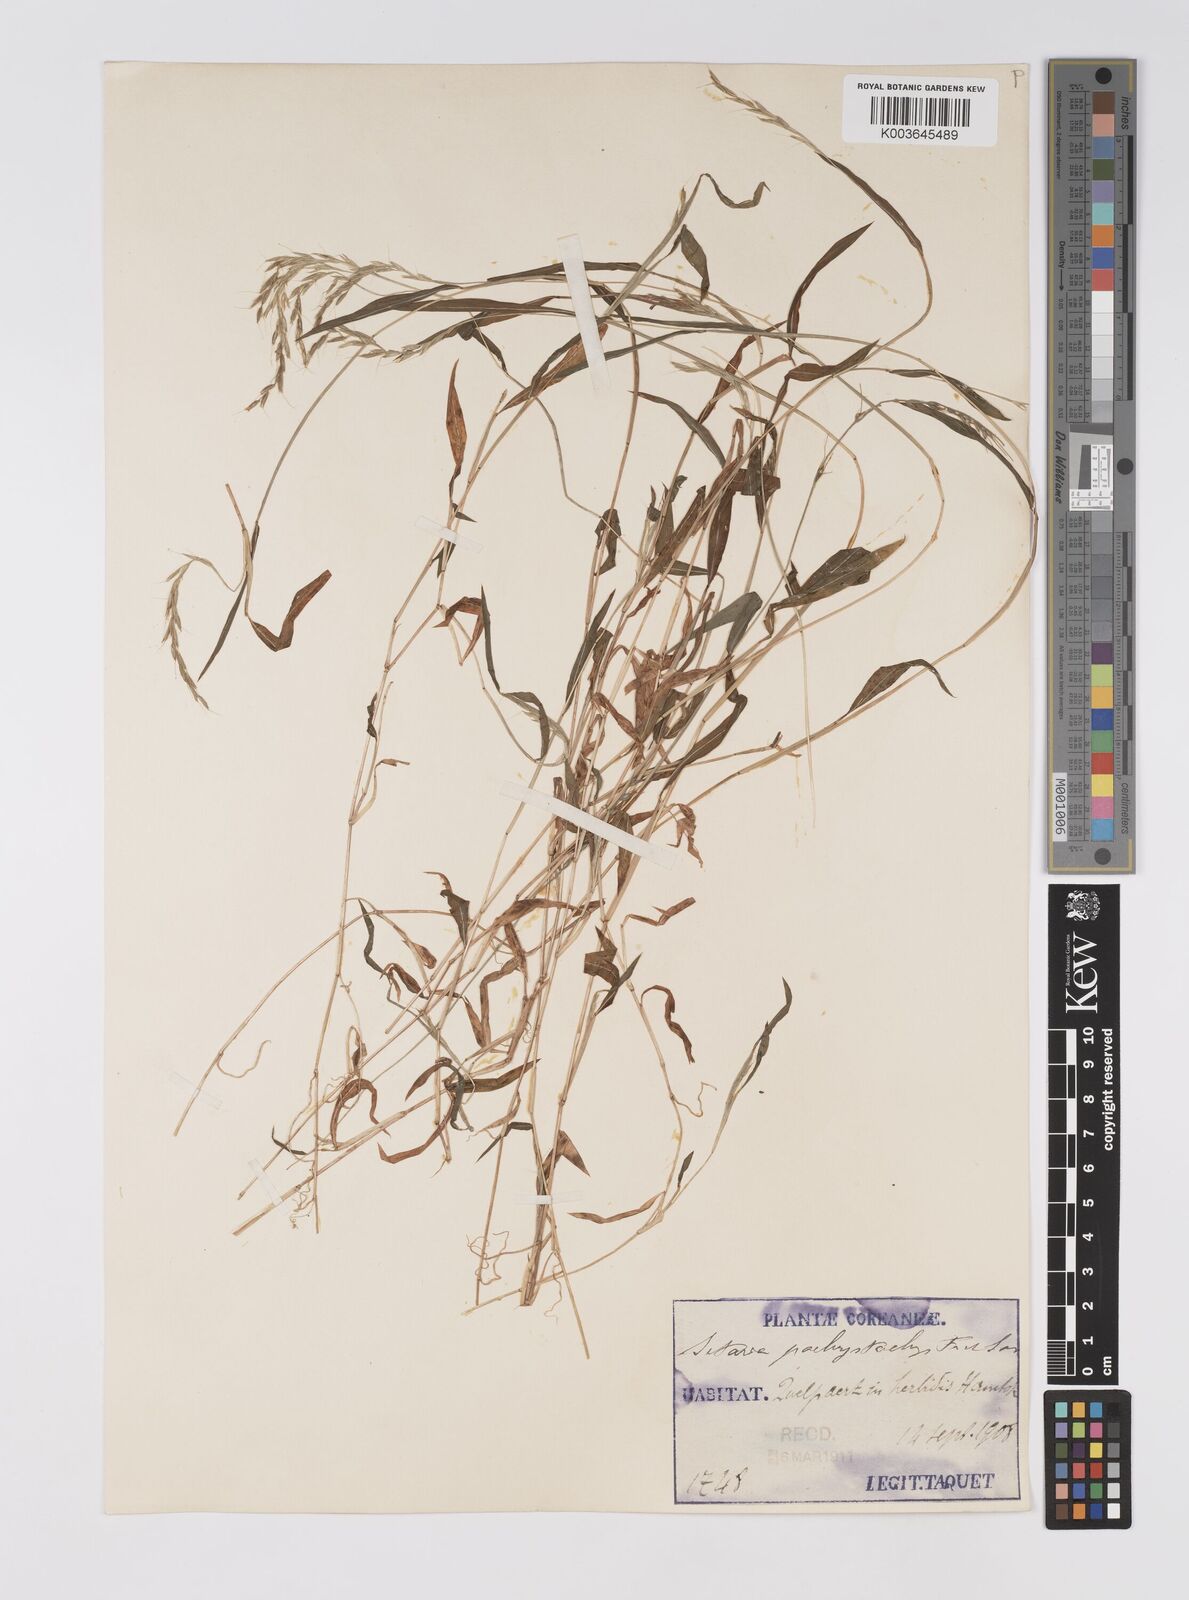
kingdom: Plantae
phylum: Tracheophyta
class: Liliopsida
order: Poales
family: Poaceae
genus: Microstegium
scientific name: Microstegium vimineum
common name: Japanese stiltgrass
